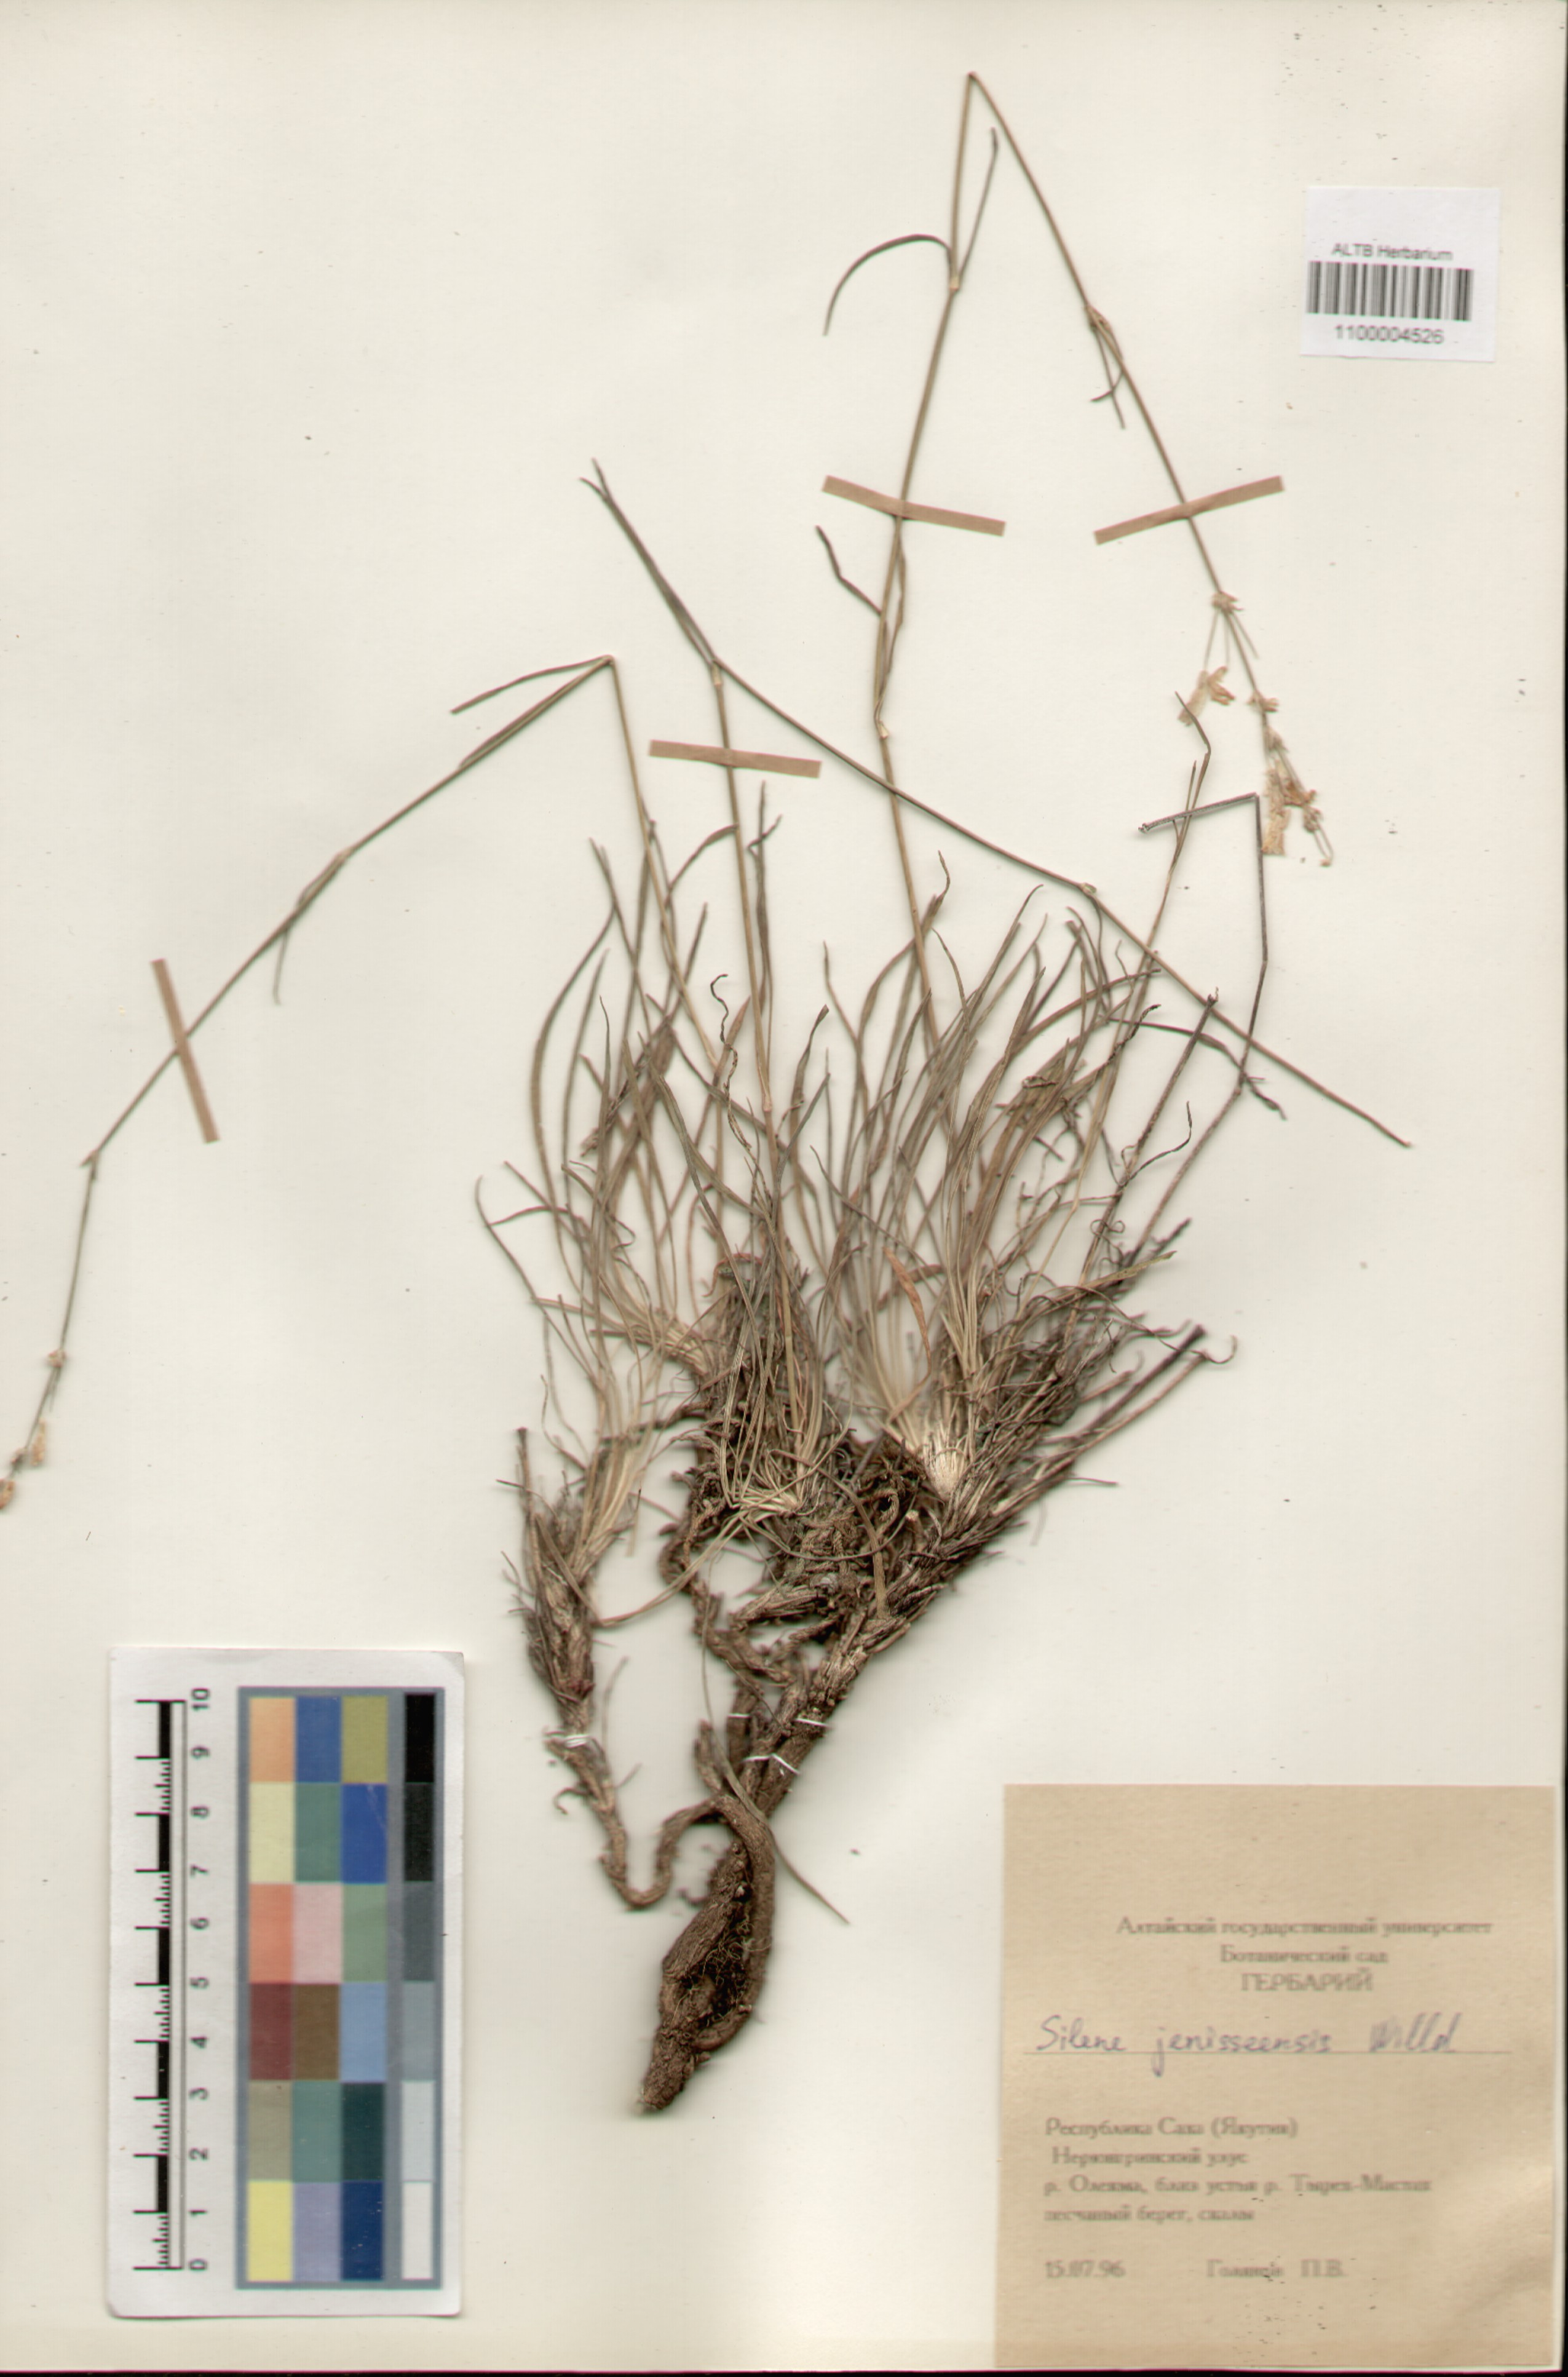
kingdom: Plantae
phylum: Tracheophyta
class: Magnoliopsida
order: Caryophyllales
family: Caryophyllaceae
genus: Silene
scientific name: Silene jeniseensis
